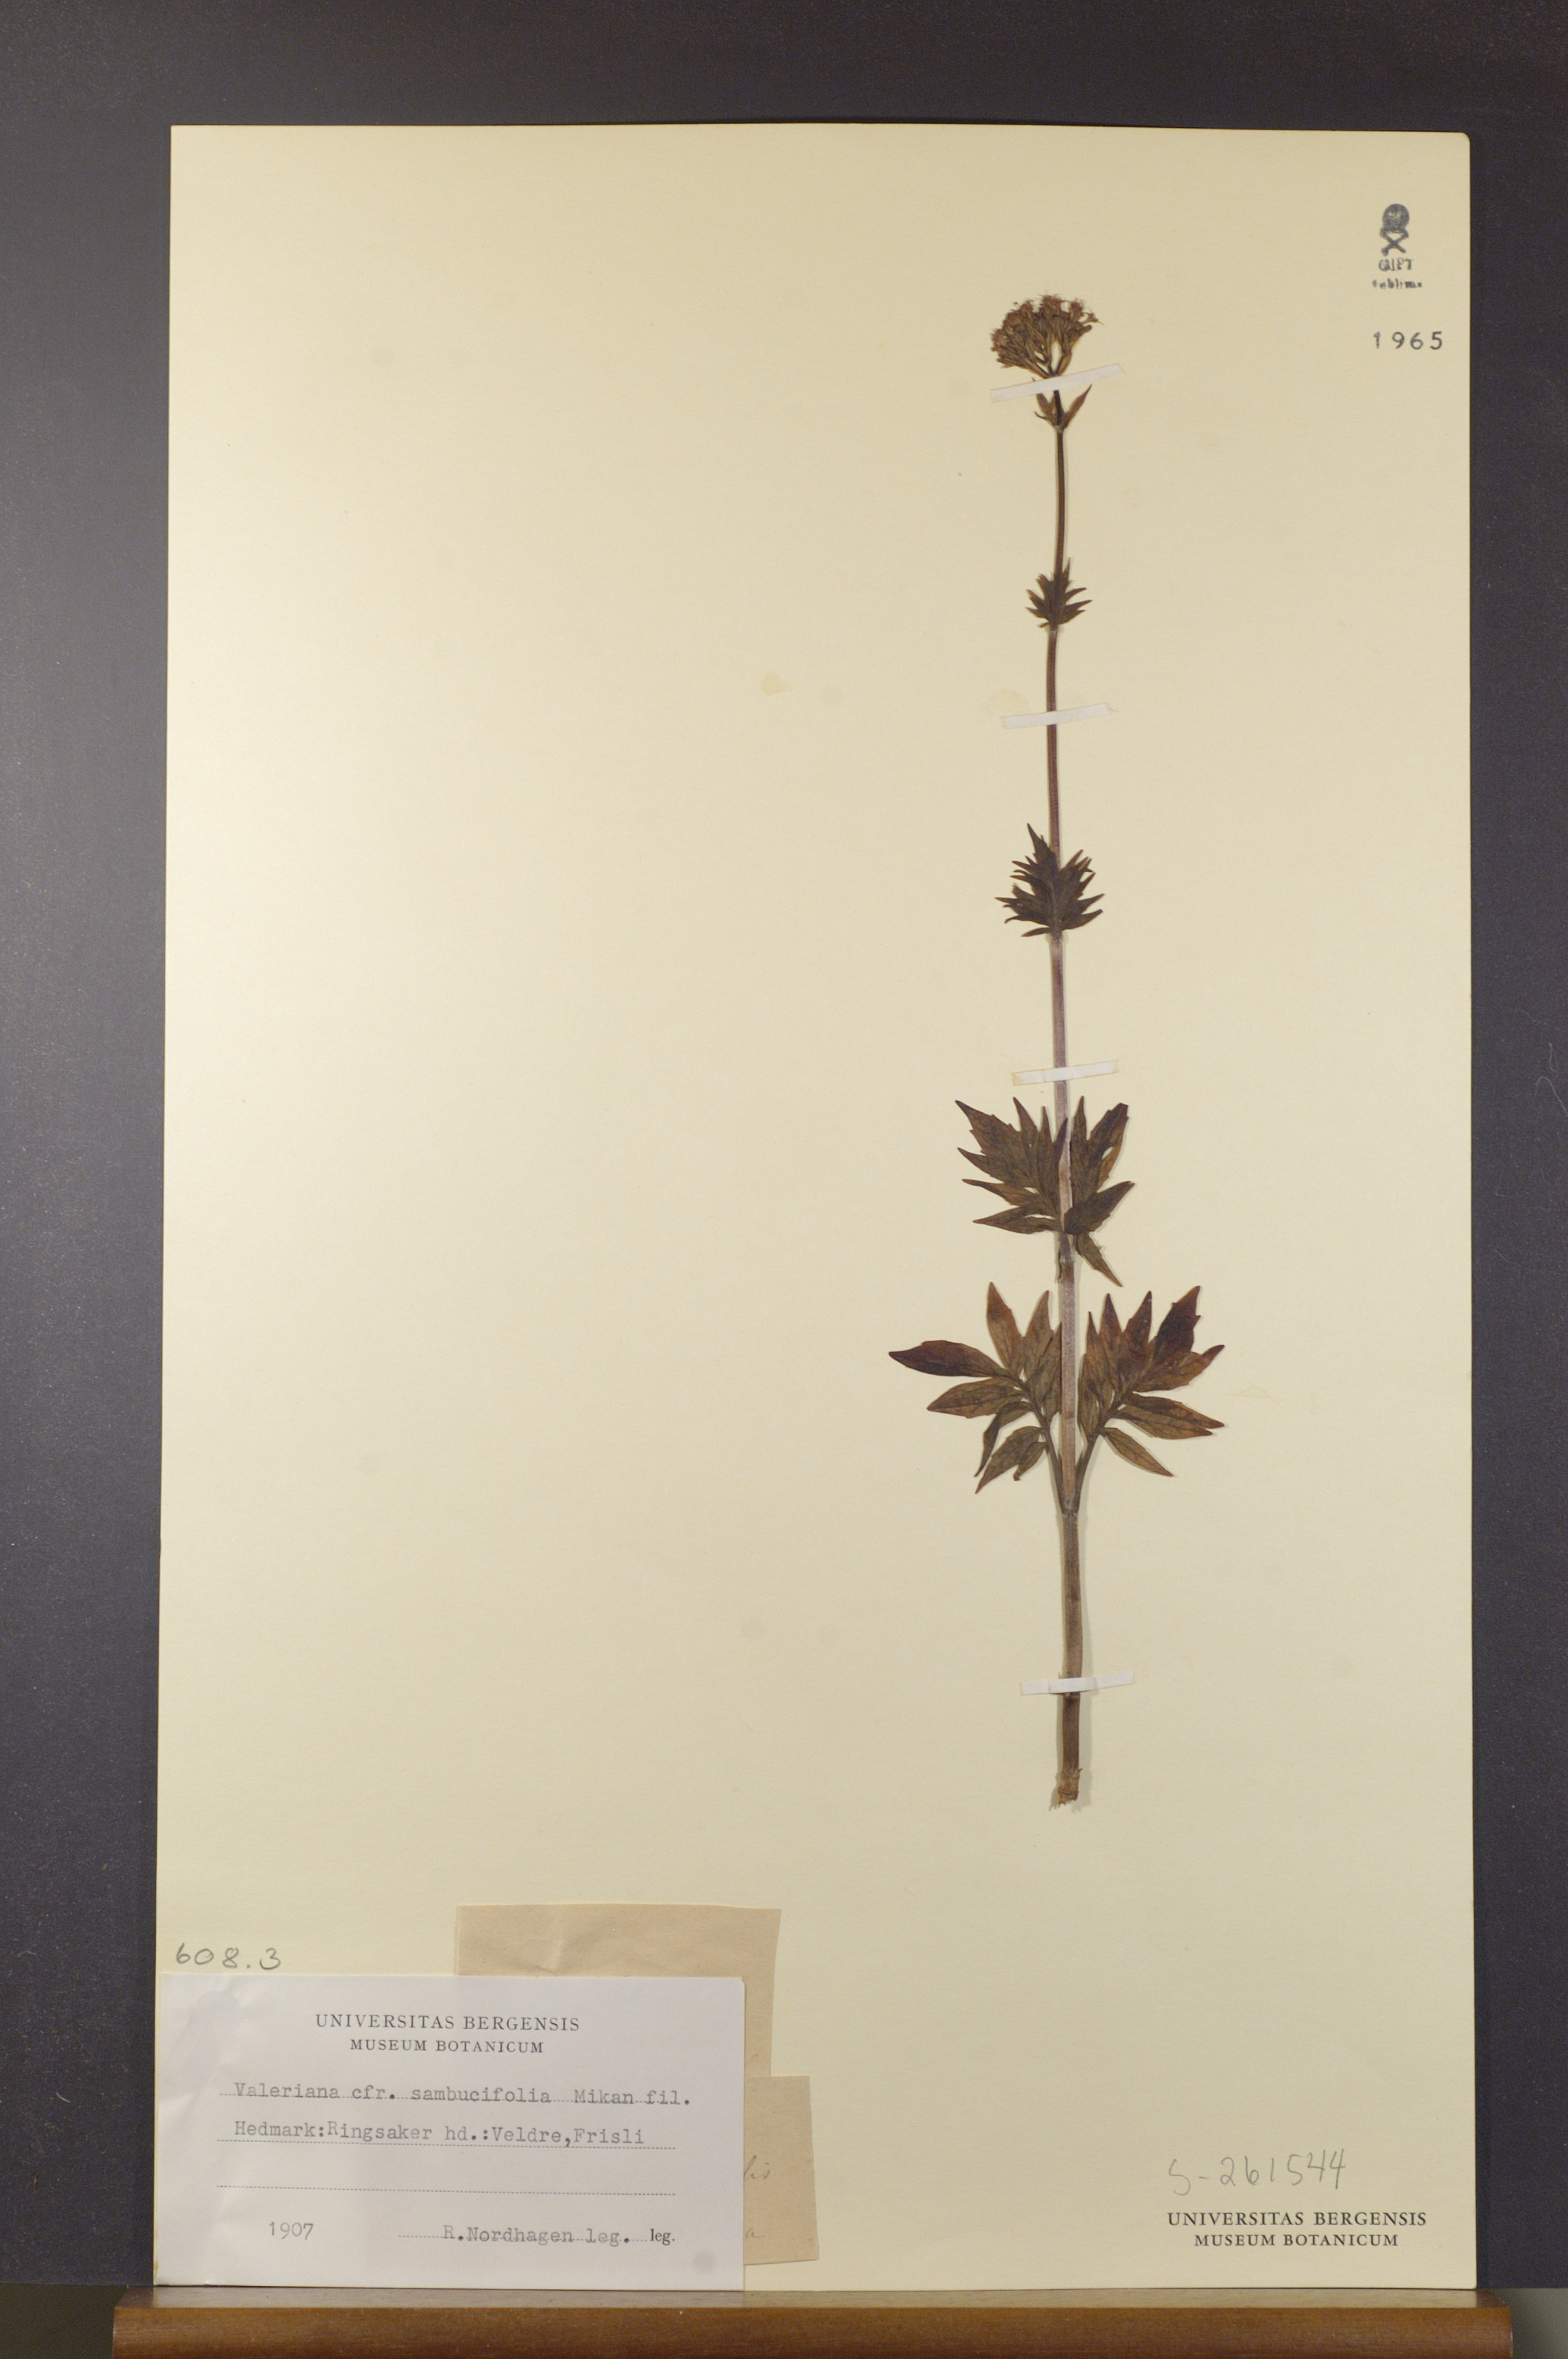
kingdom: Plantae
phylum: Tracheophyta
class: Magnoliopsida
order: Dipsacales
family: Caprifoliaceae
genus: Valeriana
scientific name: Valeriana excelsa
